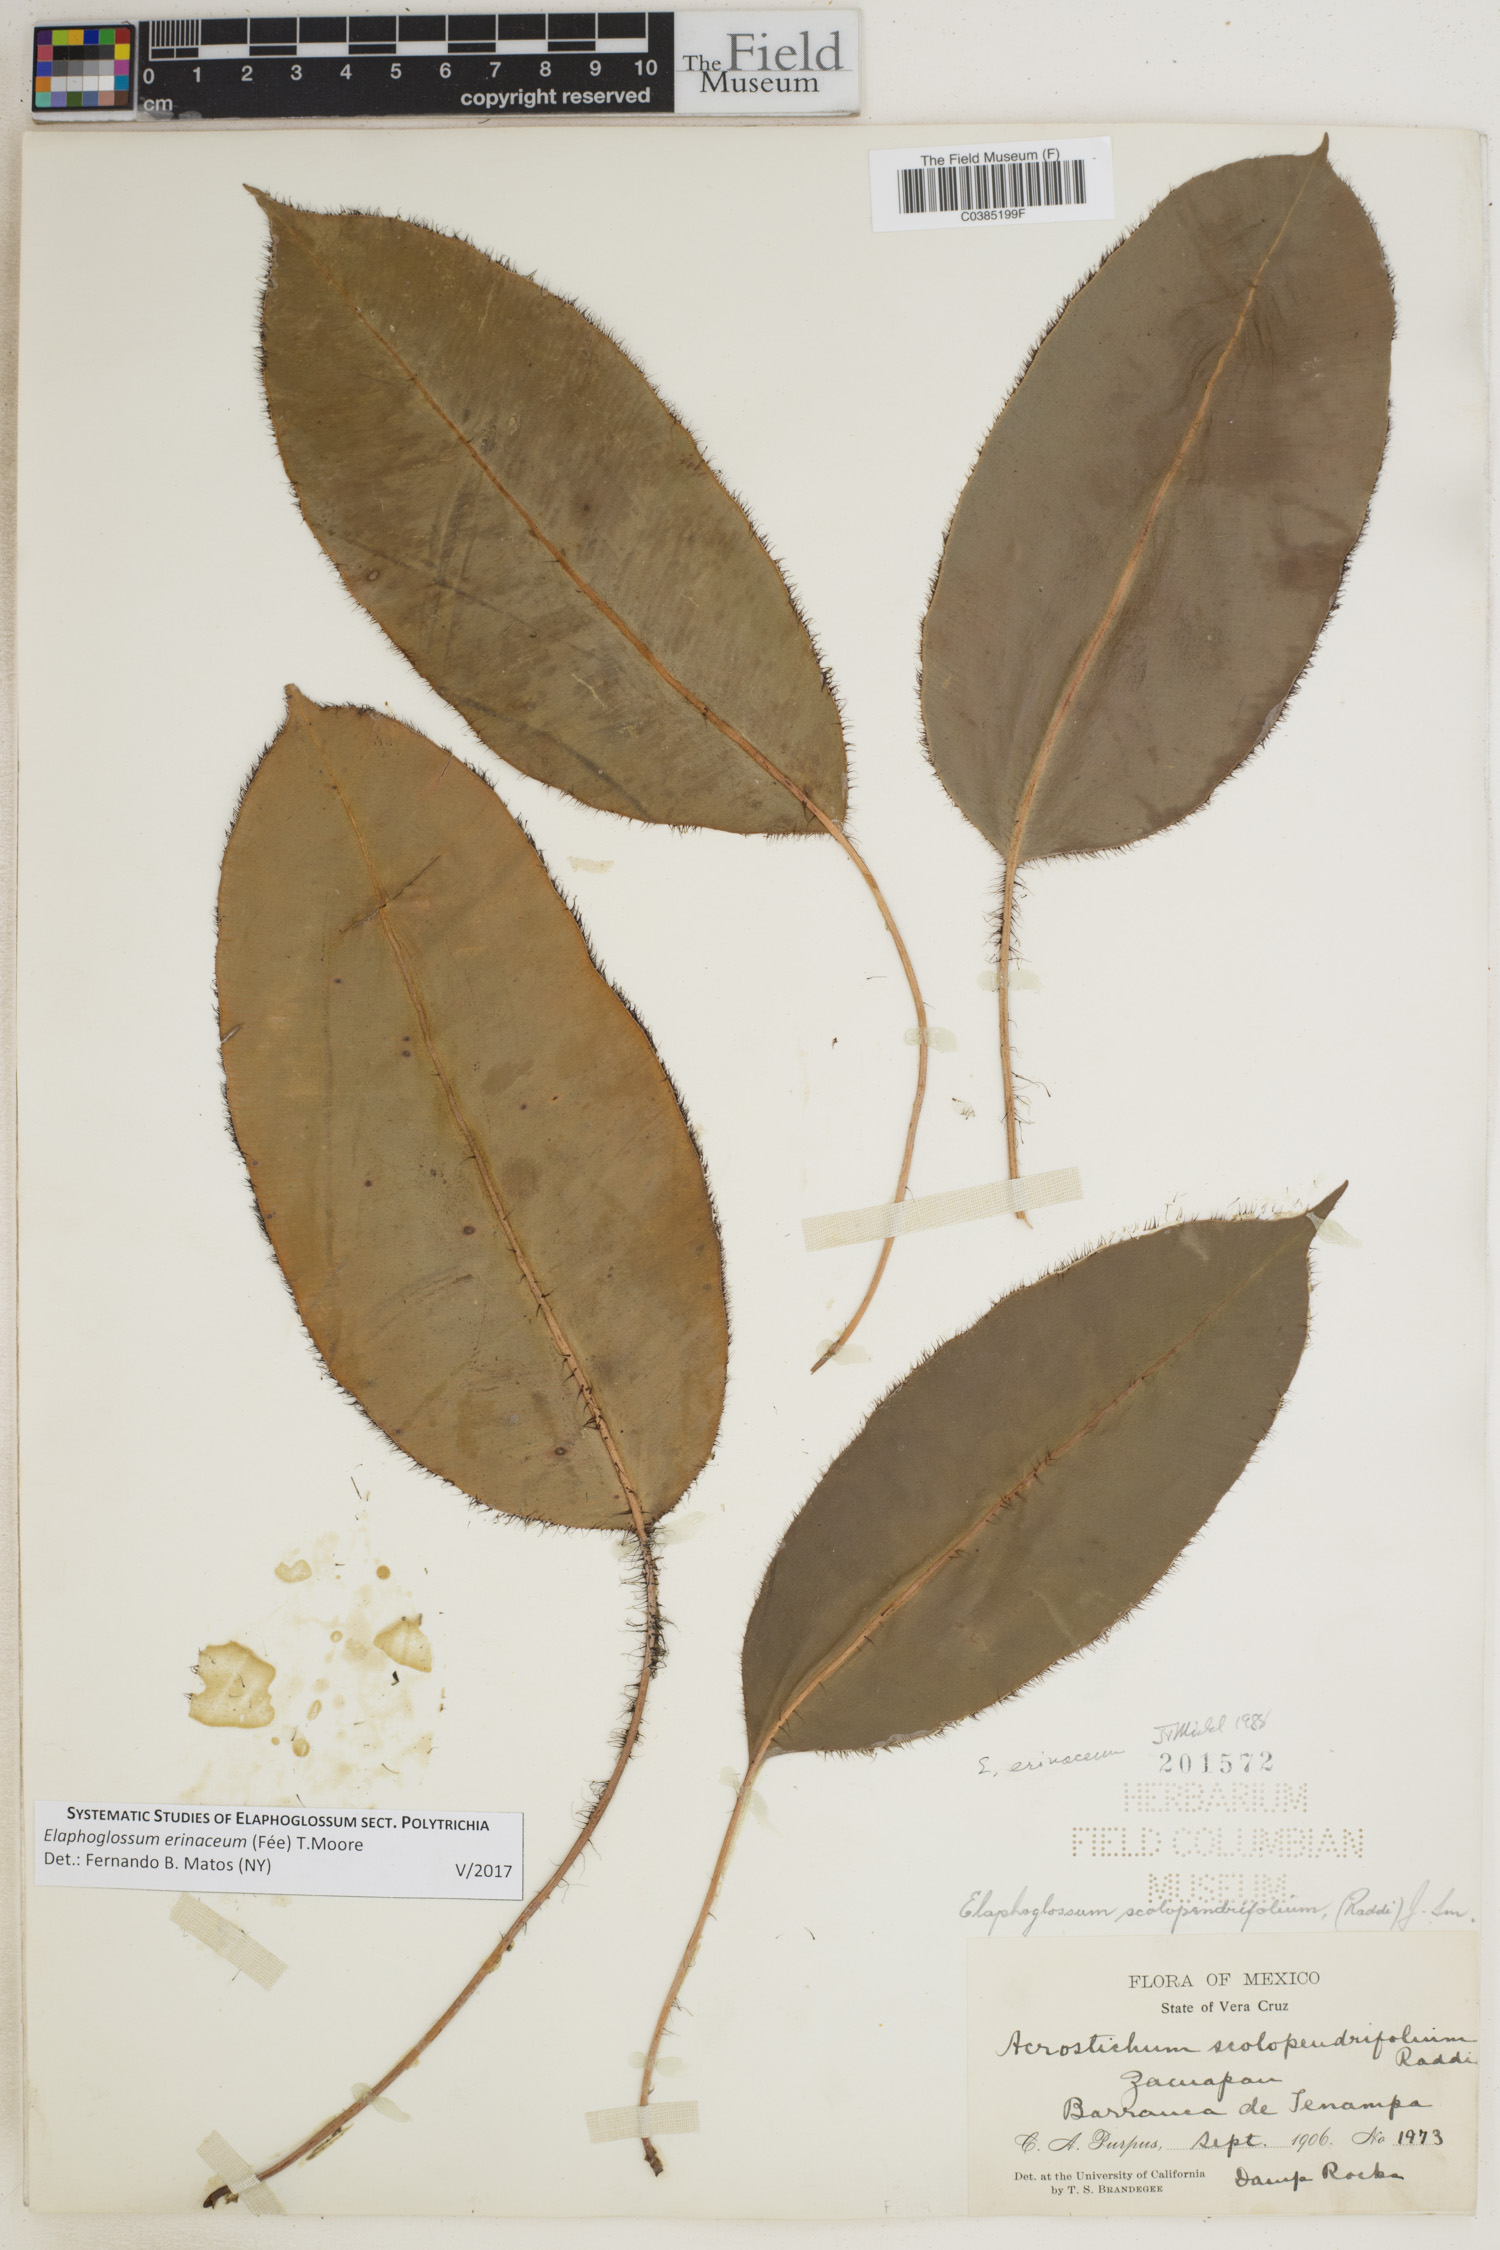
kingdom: Plantae
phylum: Tracheophyta
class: Polypodiopsida
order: Polypodiales
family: Dryopteridaceae
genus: Elaphoglossum
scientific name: Elaphoglossum erinaceum
